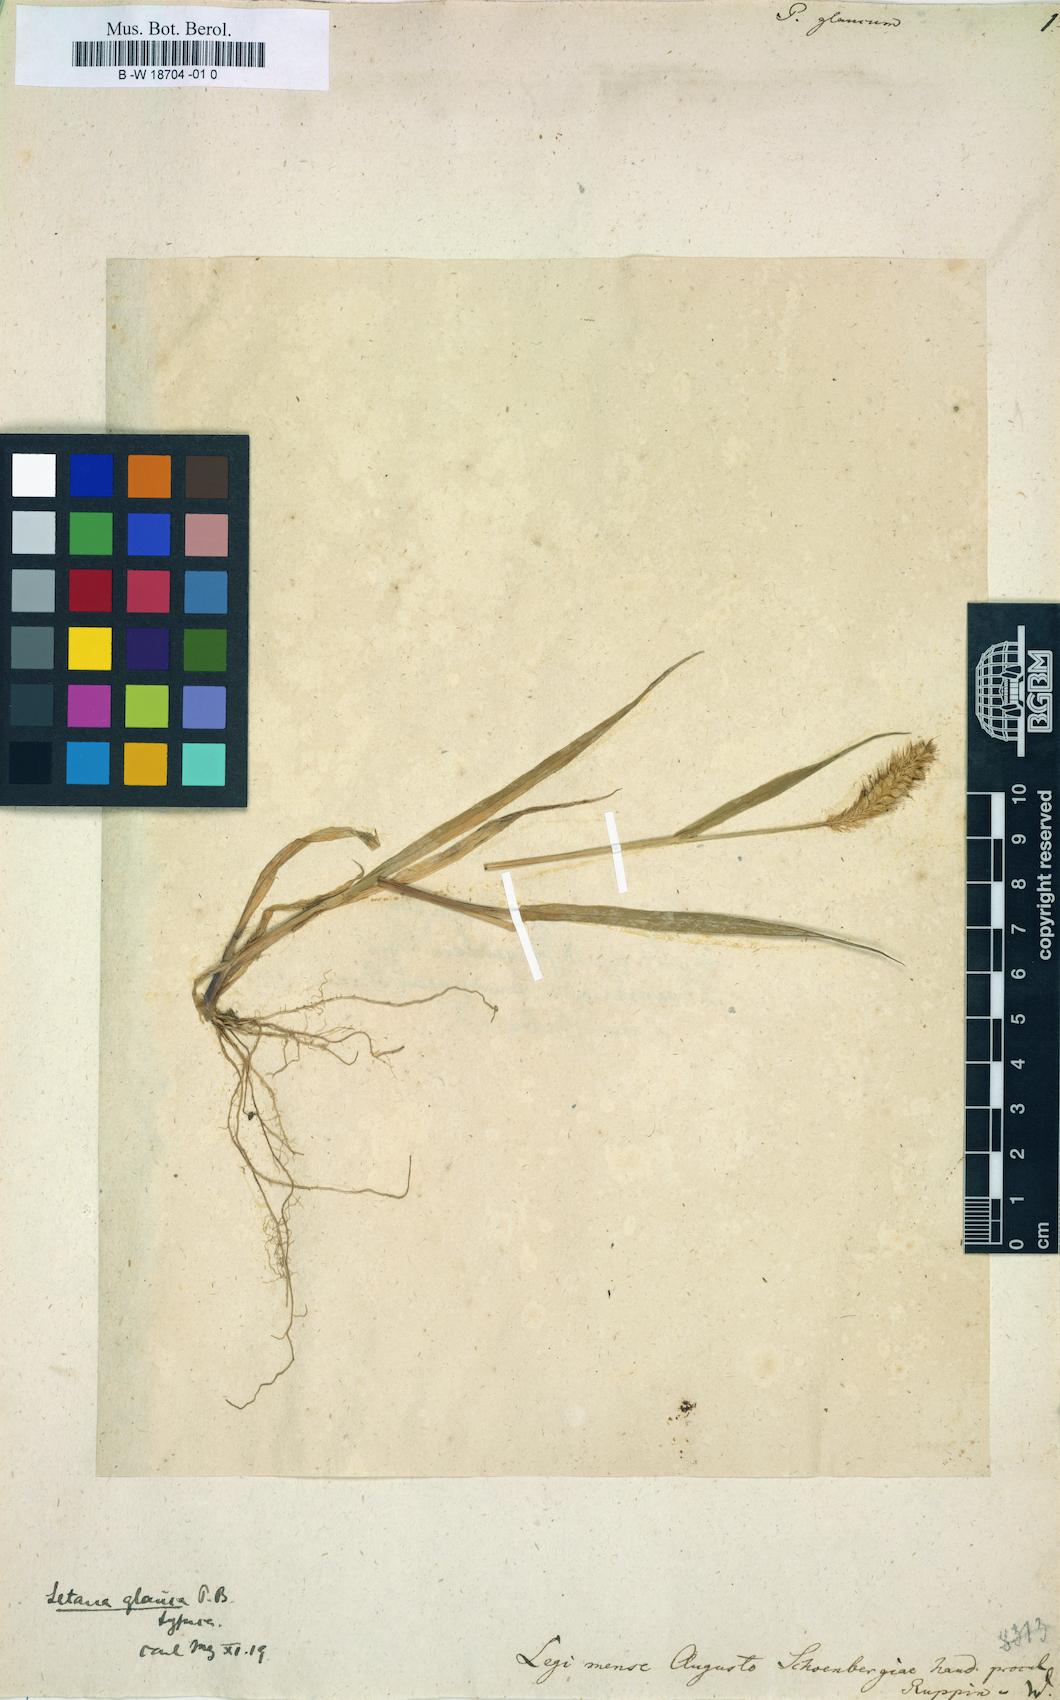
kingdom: Plantae
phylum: Tracheophyta
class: Liliopsida
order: Poales
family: Poaceae
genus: Panicum
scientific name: Panicum glaucum
